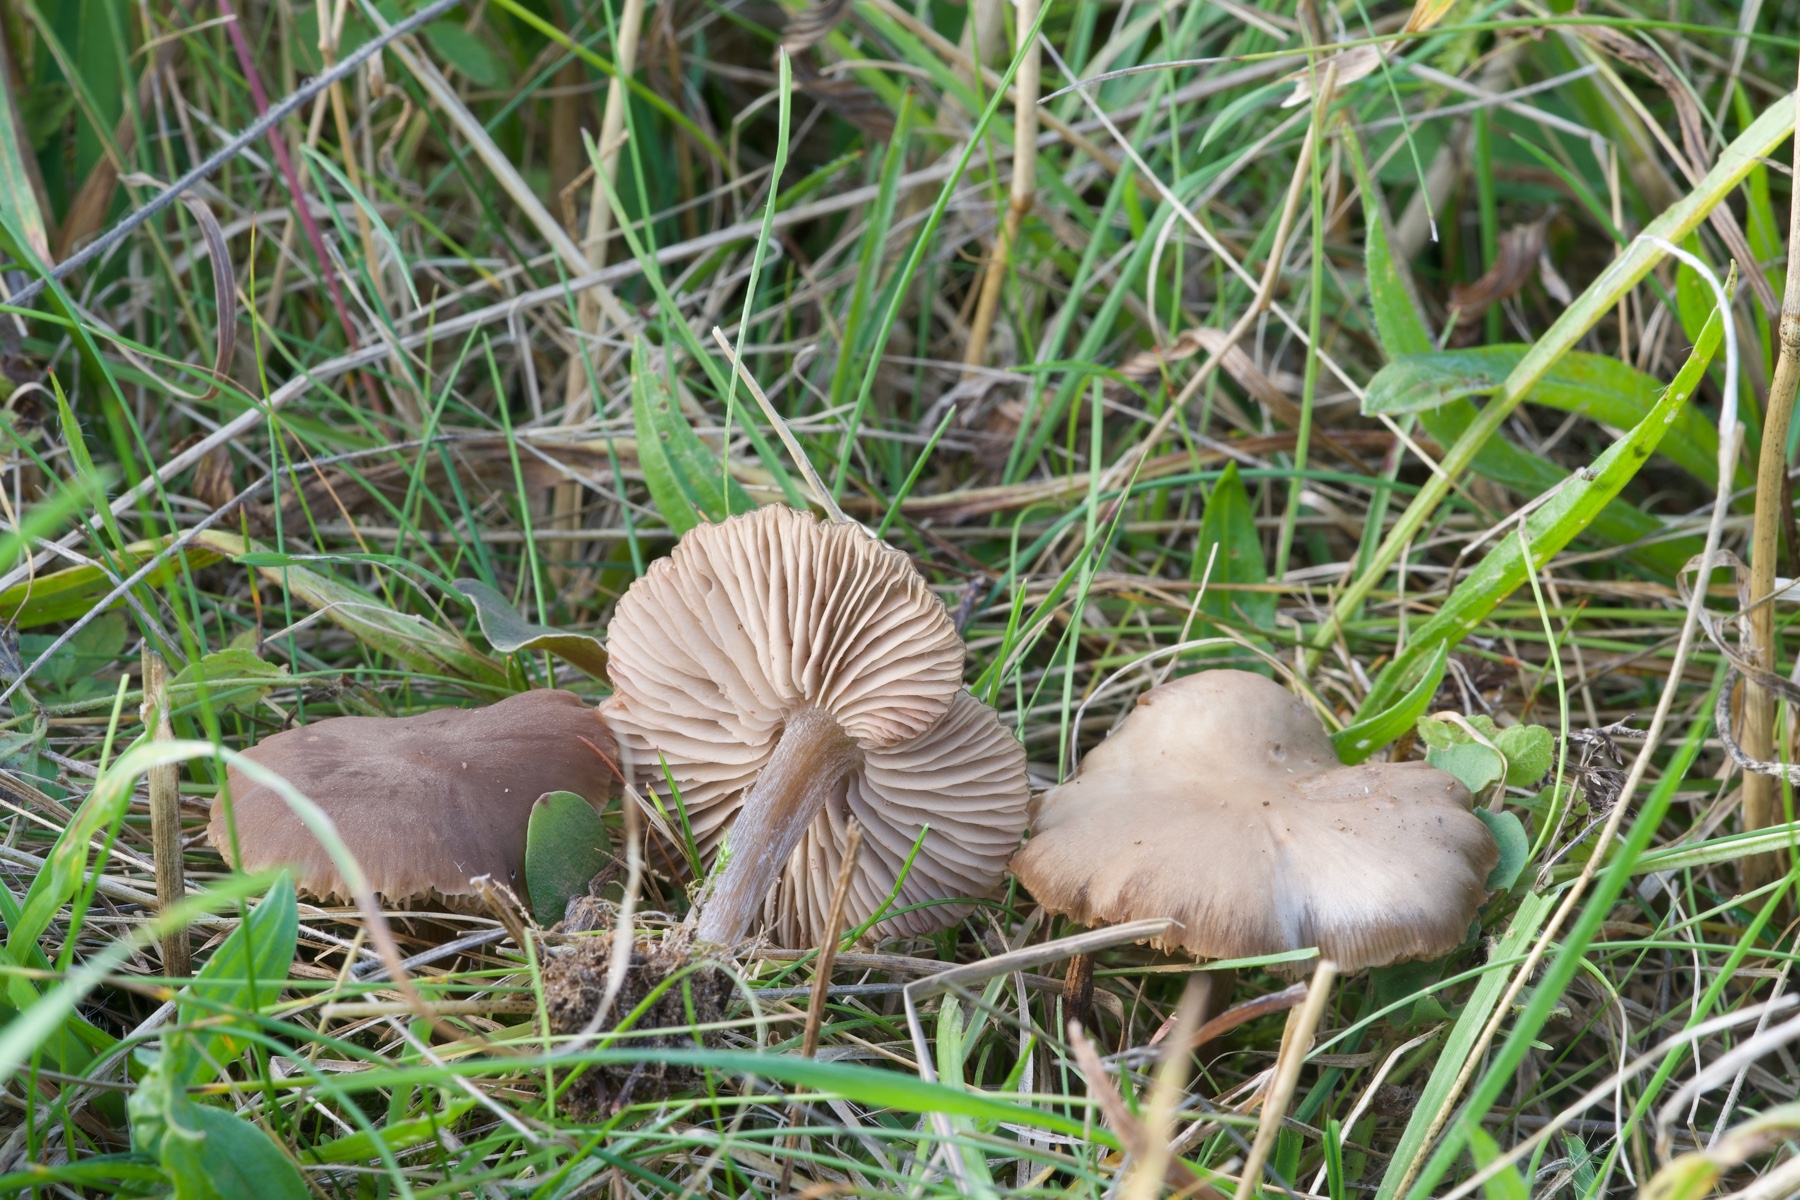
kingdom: Fungi
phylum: Basidiomycota
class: Agaricomycetes
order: Agaricales
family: Entolomataceae
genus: Entoloma
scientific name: Entoloma sericeum
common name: silkeglinsende rødblad
